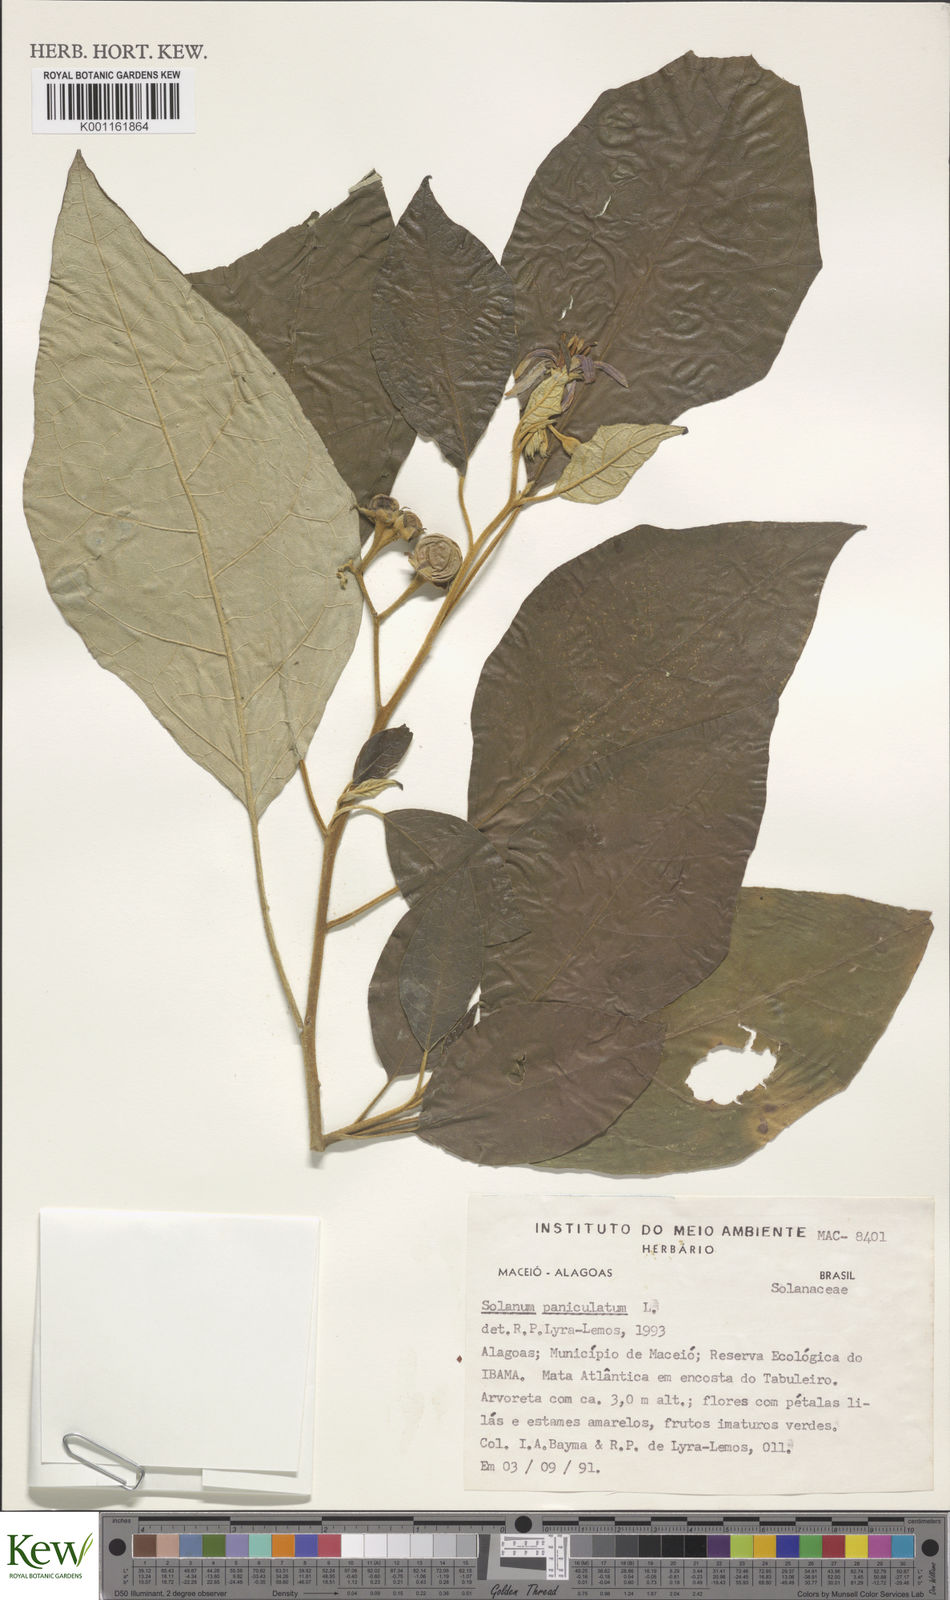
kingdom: Plantae
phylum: Tracheophyta
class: Magnoliopsida
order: Solanales
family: Solanaceae
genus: Solanum
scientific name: Solanum paniculatum
